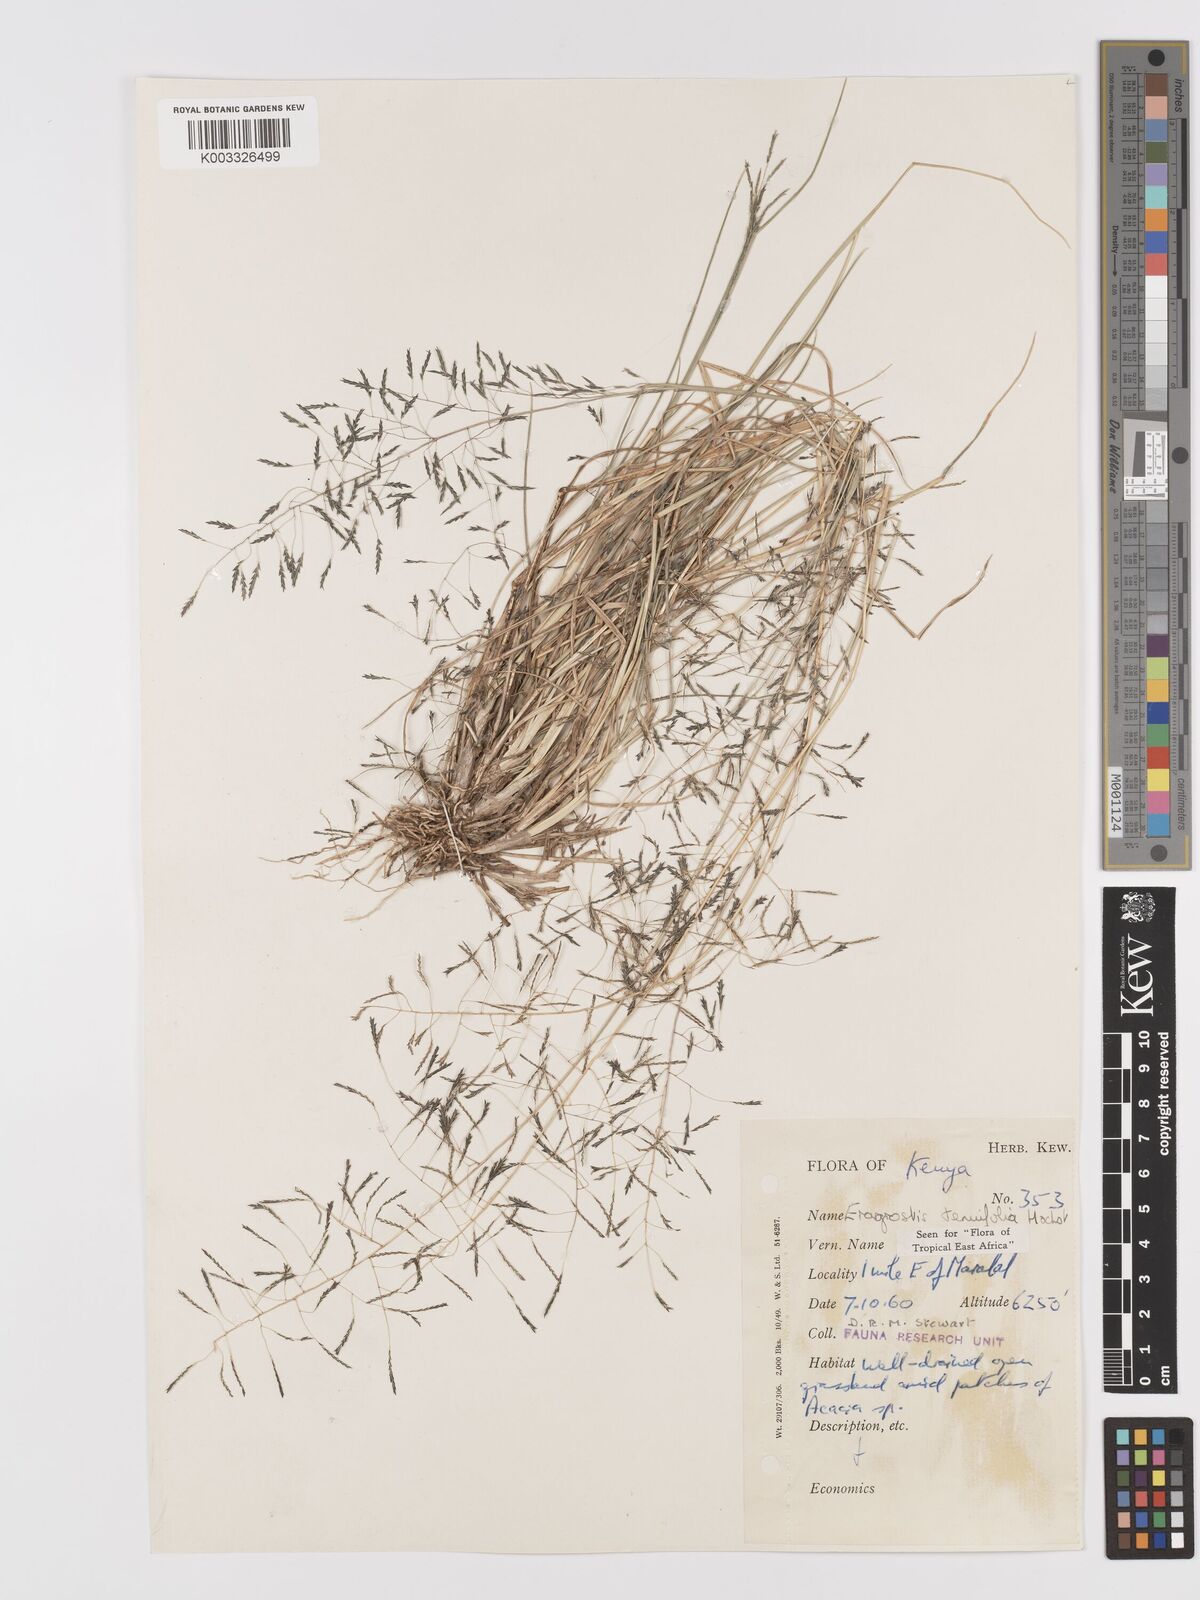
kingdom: Plantae
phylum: Tracheophyta
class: Liliopsida
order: Poales
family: Poaceae
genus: Eragrostis
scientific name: Eragrostis tenuifolia
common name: Elastic grass
